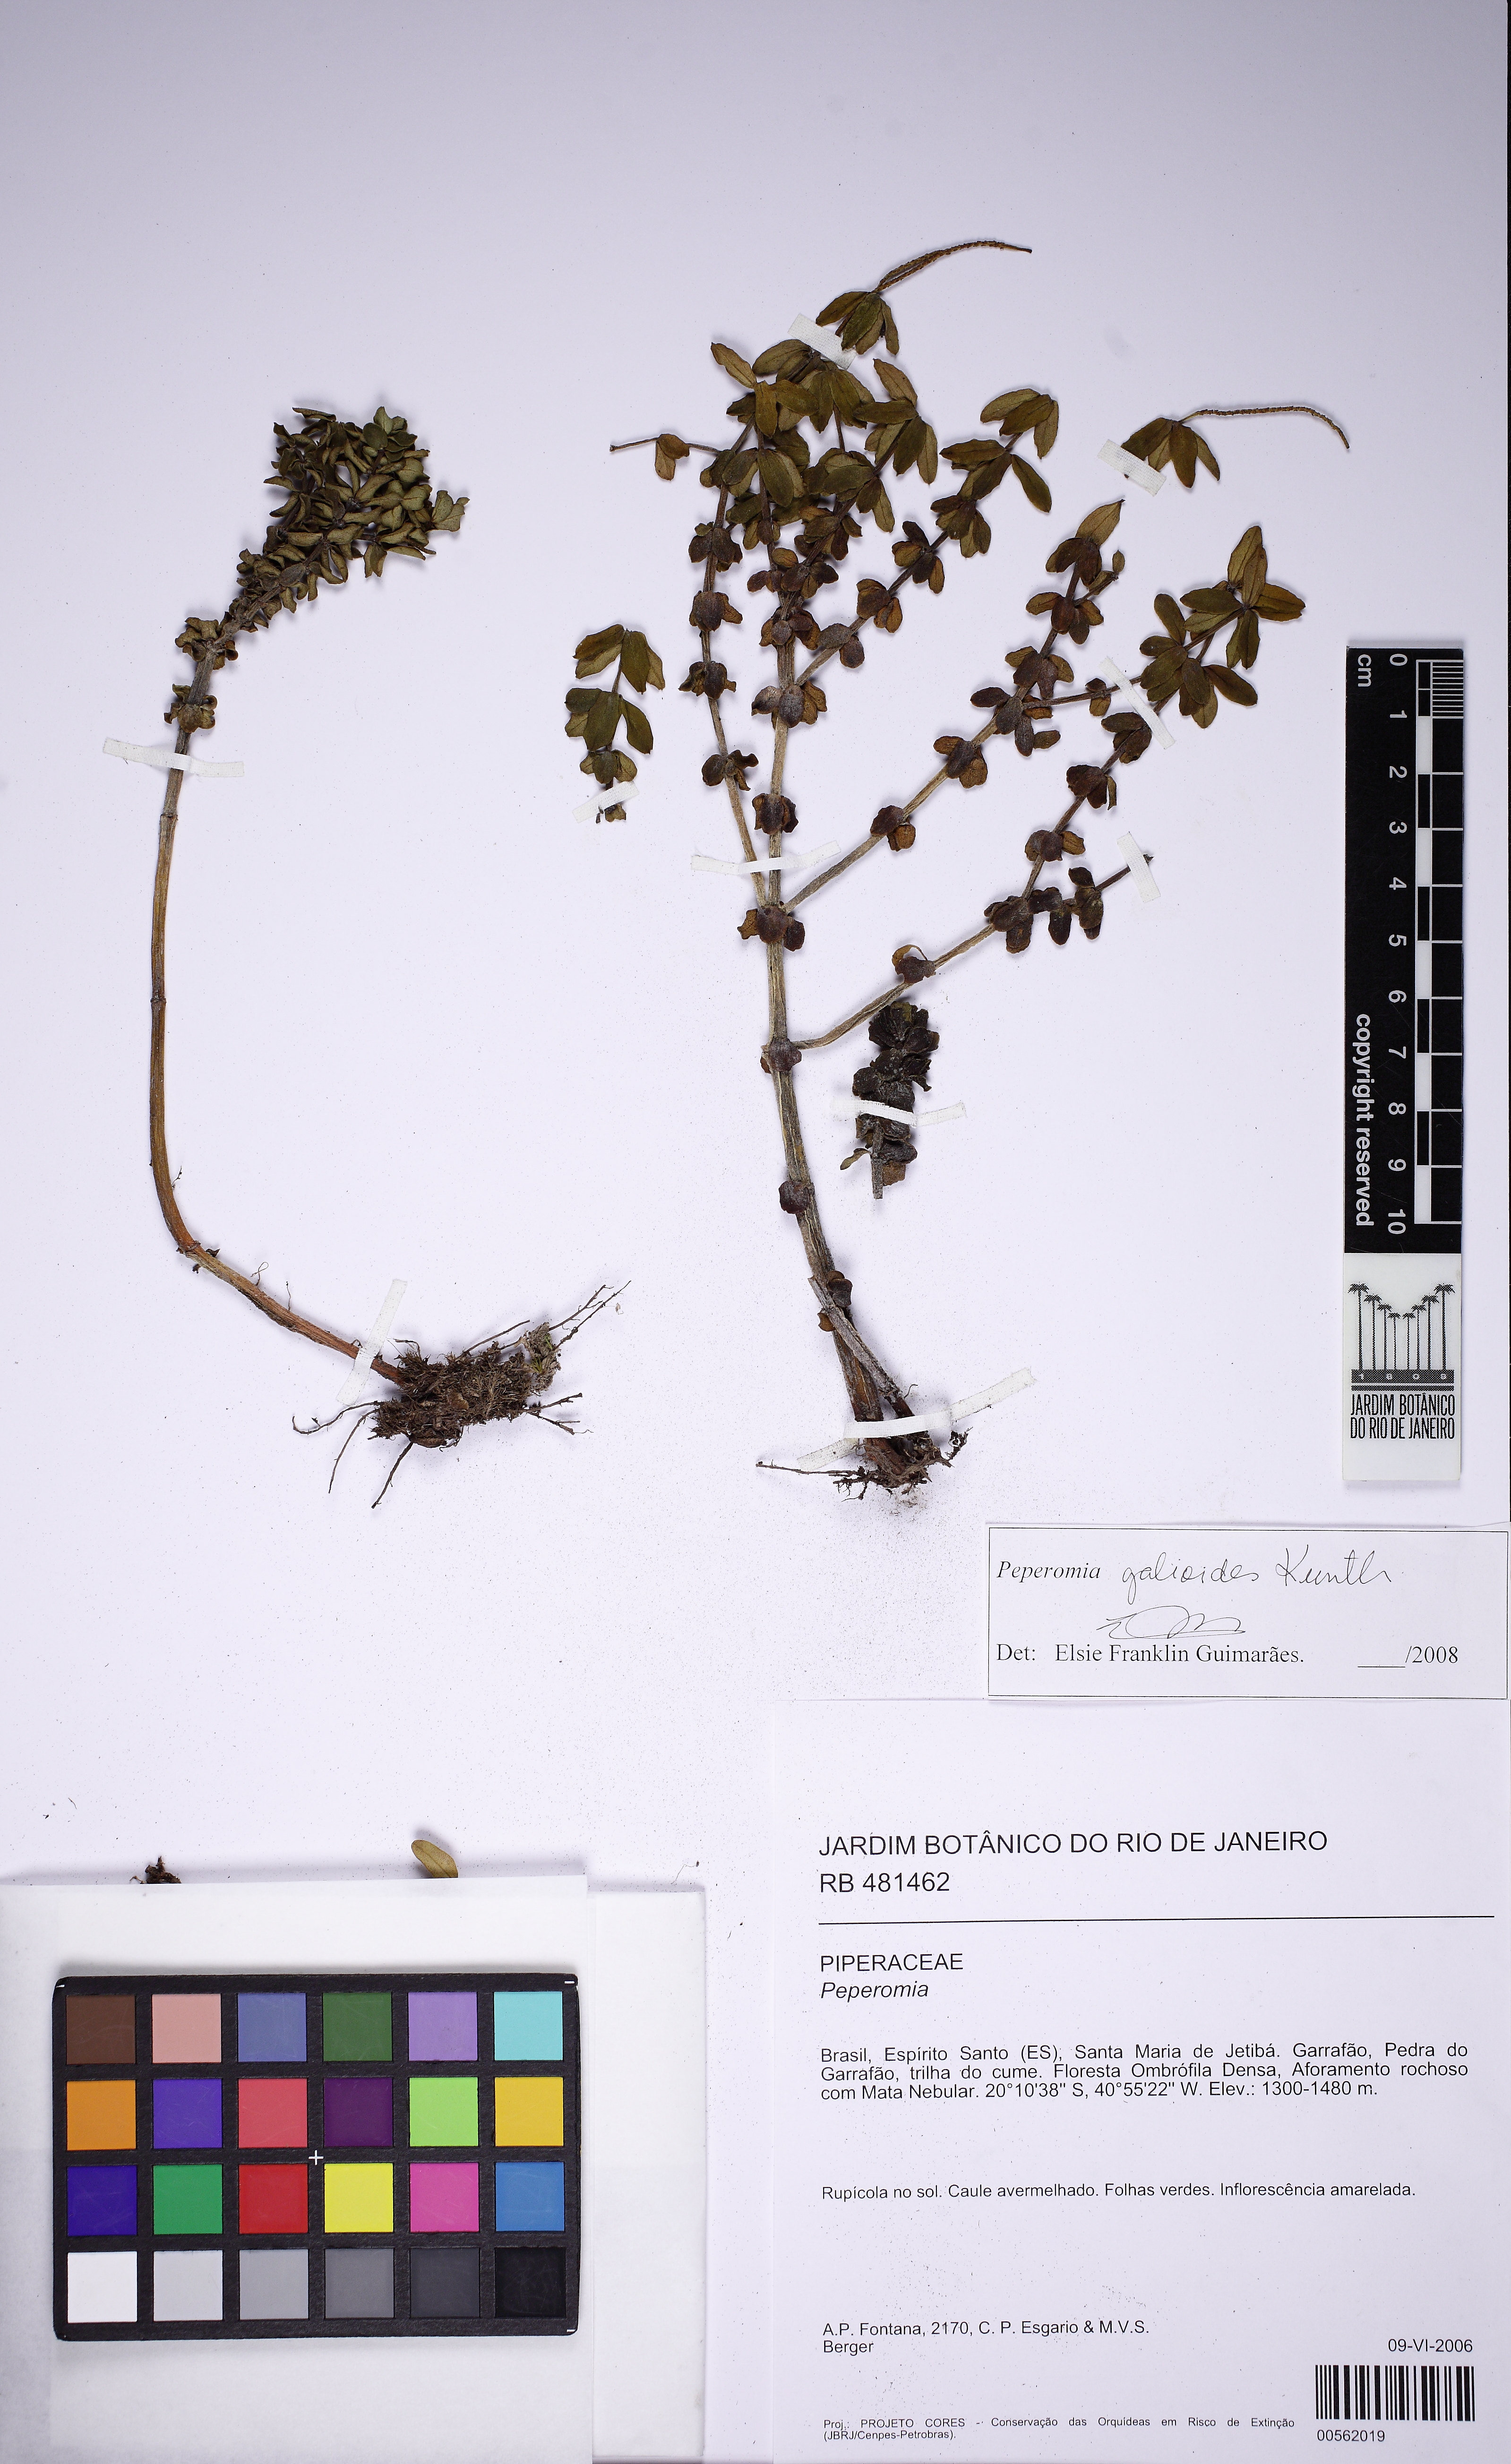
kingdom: Plantae
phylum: Tracheophyta
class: Magnoliopsida
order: Piperales
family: Piperaceae
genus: Peperomia
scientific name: Peperomia galioides
